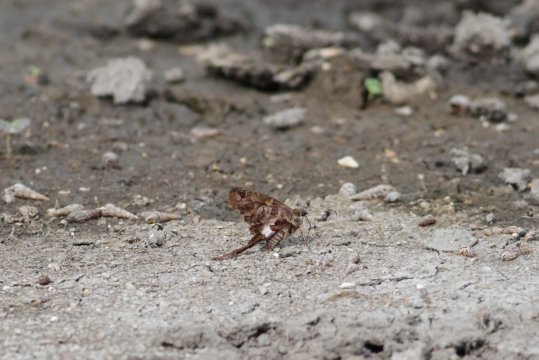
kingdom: Animalia
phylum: Arthropoda
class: Insecta
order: Lepidoptera
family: Hesperiidae
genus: Codatractus
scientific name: Codatractus alcaeus
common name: White-crescent Longtail
